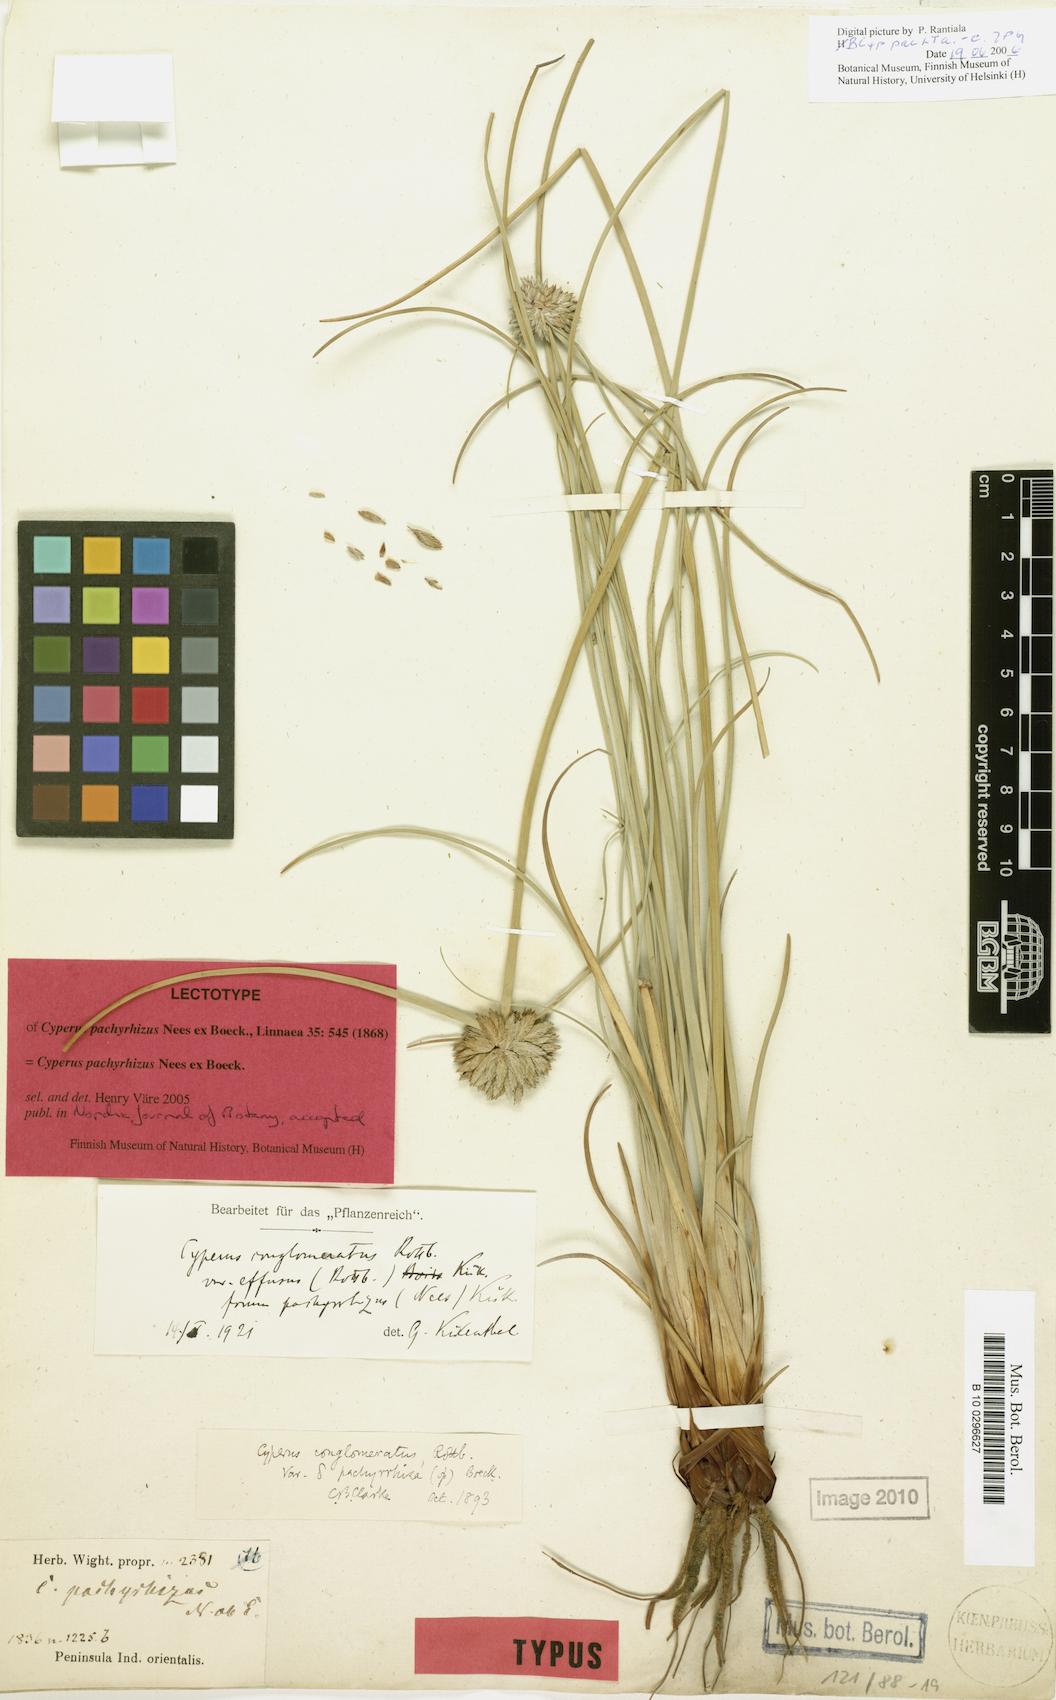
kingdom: Plantae
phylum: Tracheophyta
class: Liliopsida
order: Poales
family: Cyperaceae
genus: Cyperus
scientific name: Cyperus pachyrhizus
